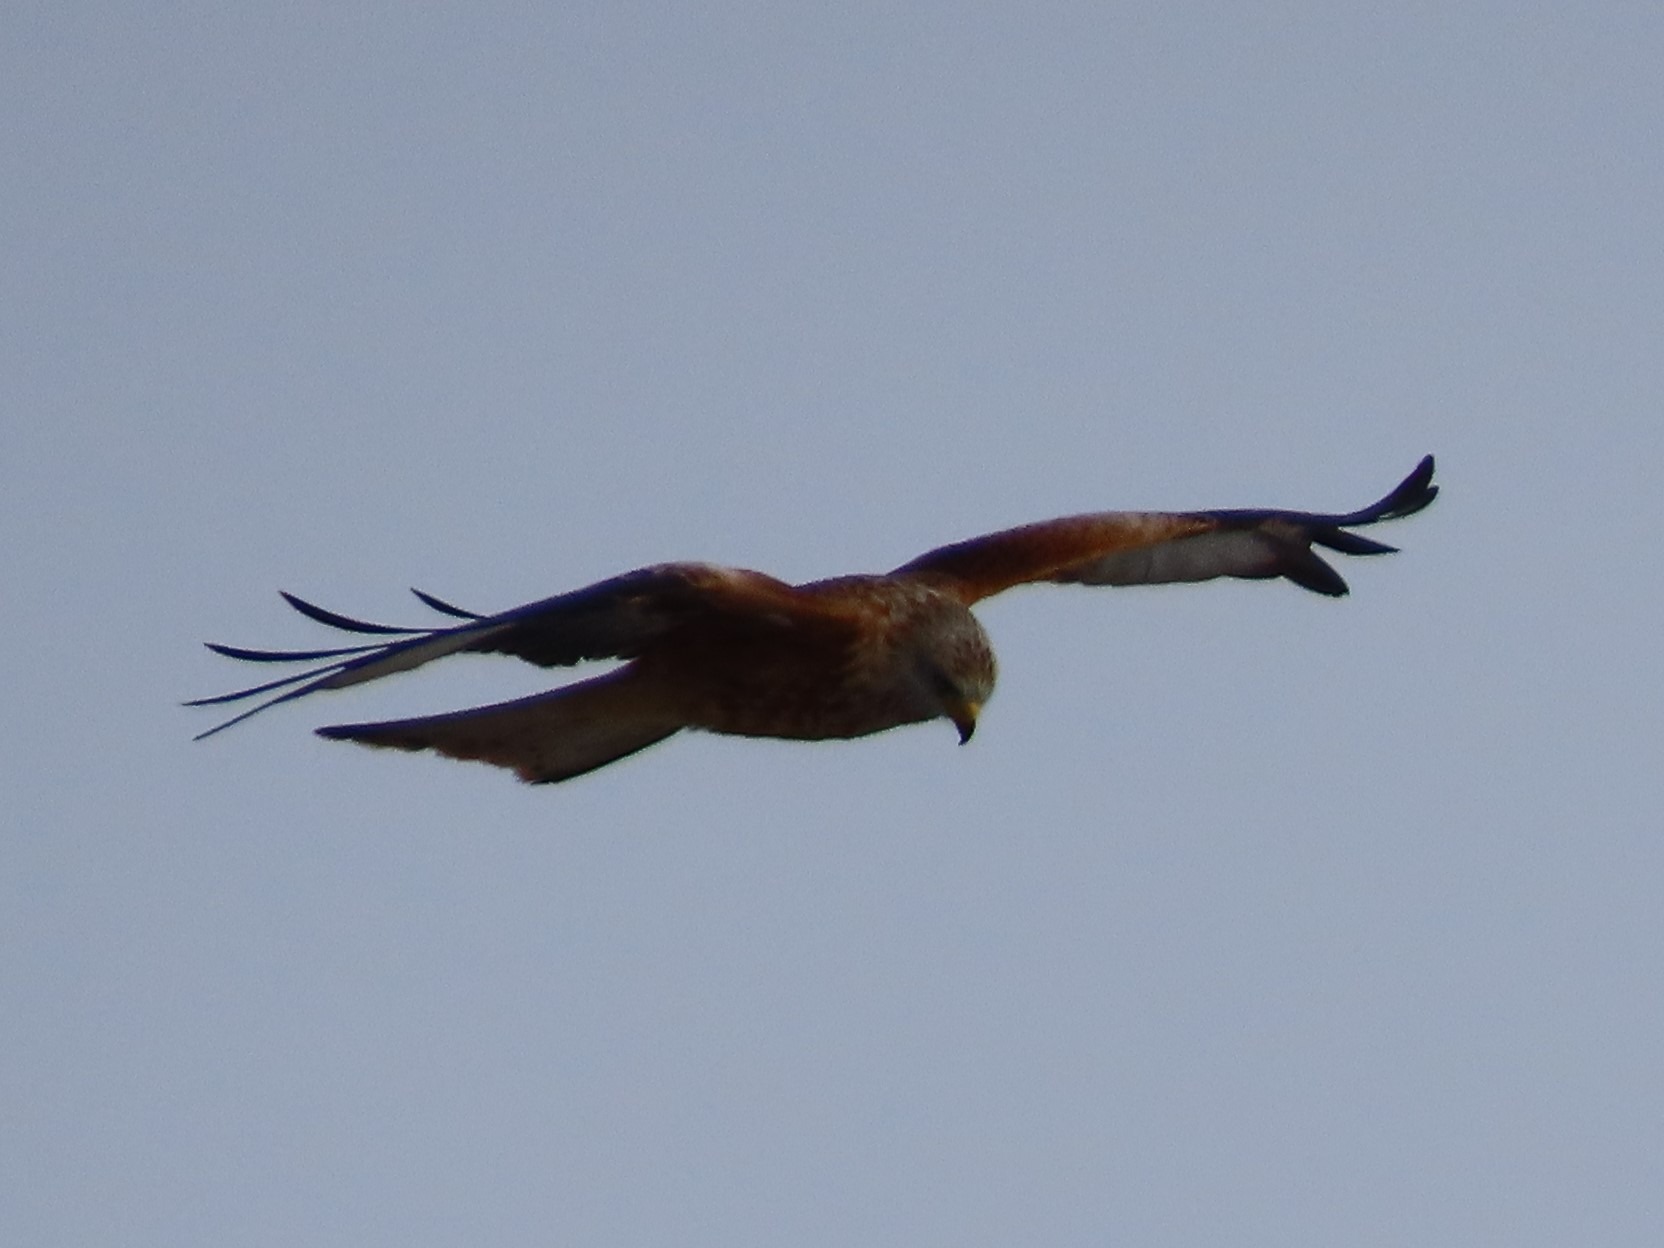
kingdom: Animalia
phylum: Chordata
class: Aves
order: Accipitriformes
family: Accipitridae
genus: Milvus
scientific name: Milvus milvus
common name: Rød glente
